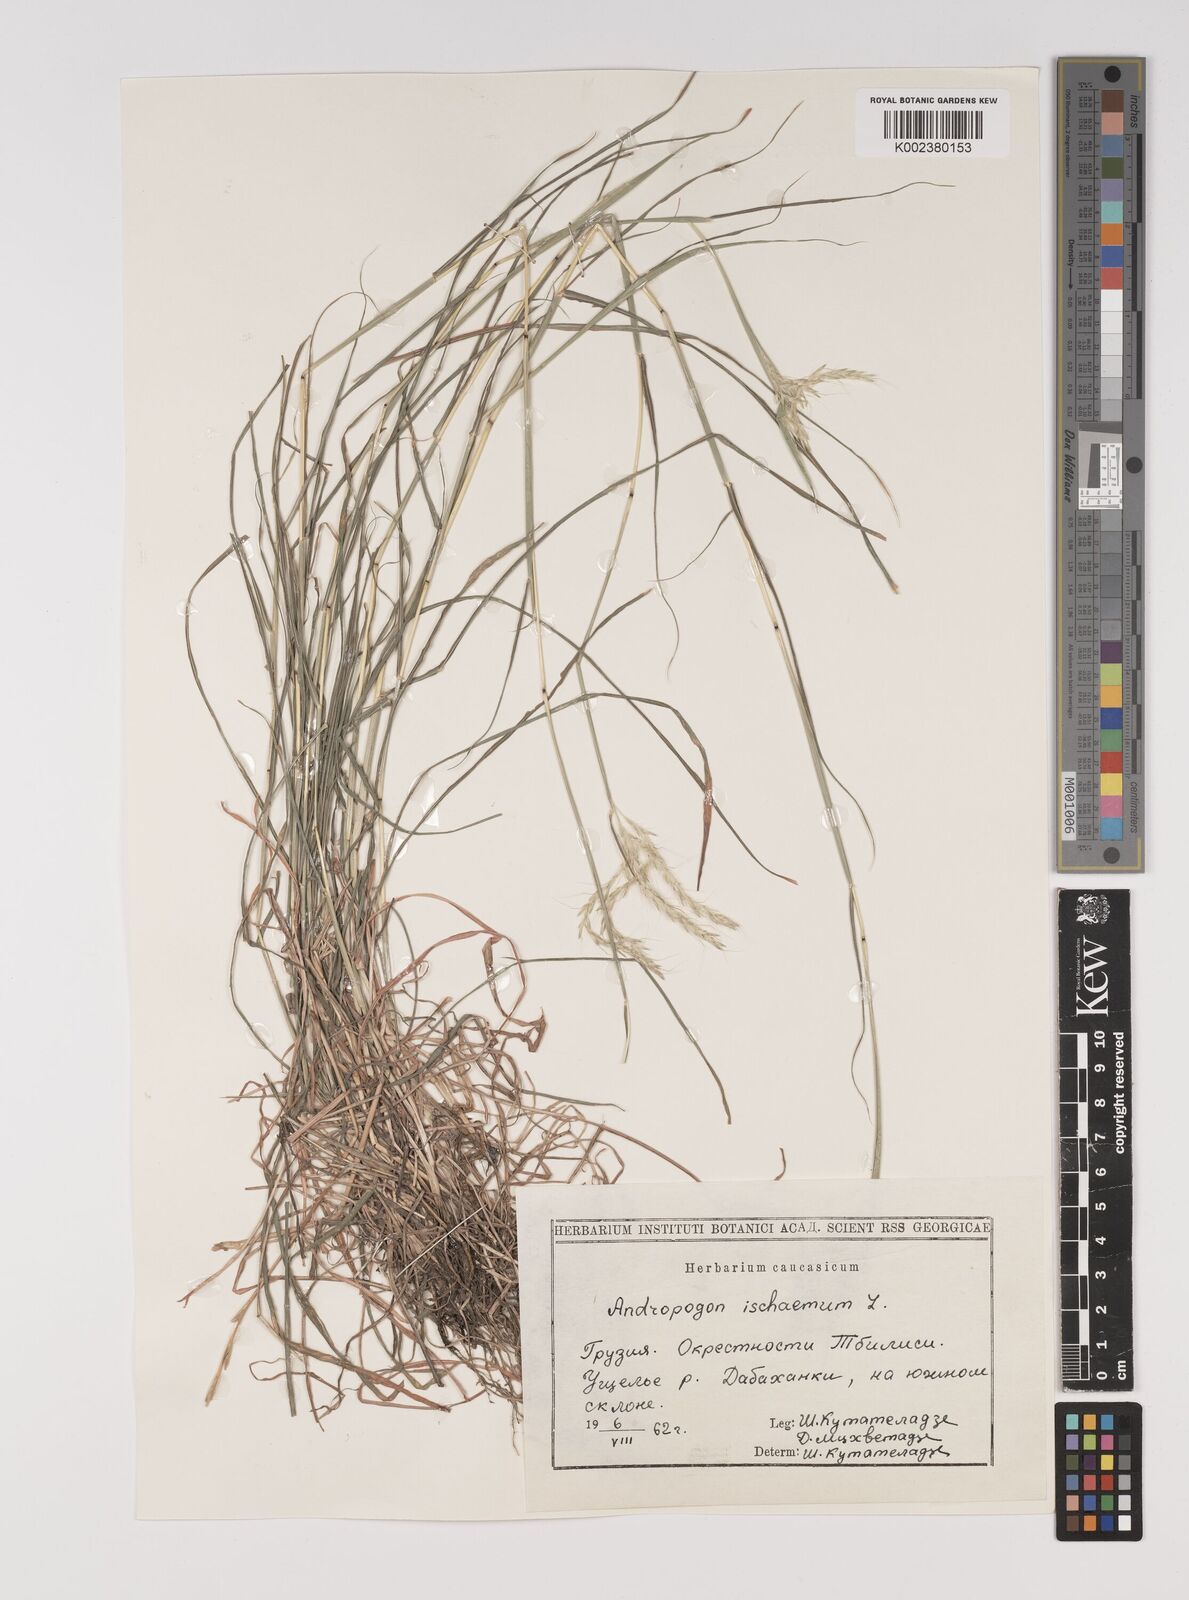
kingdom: Plantae
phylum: Tracheophyta
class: Liliopsida
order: Poales
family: Poaceae
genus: Bothriochloa
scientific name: Bothriochloa ischaemum
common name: Yellow bluestem
